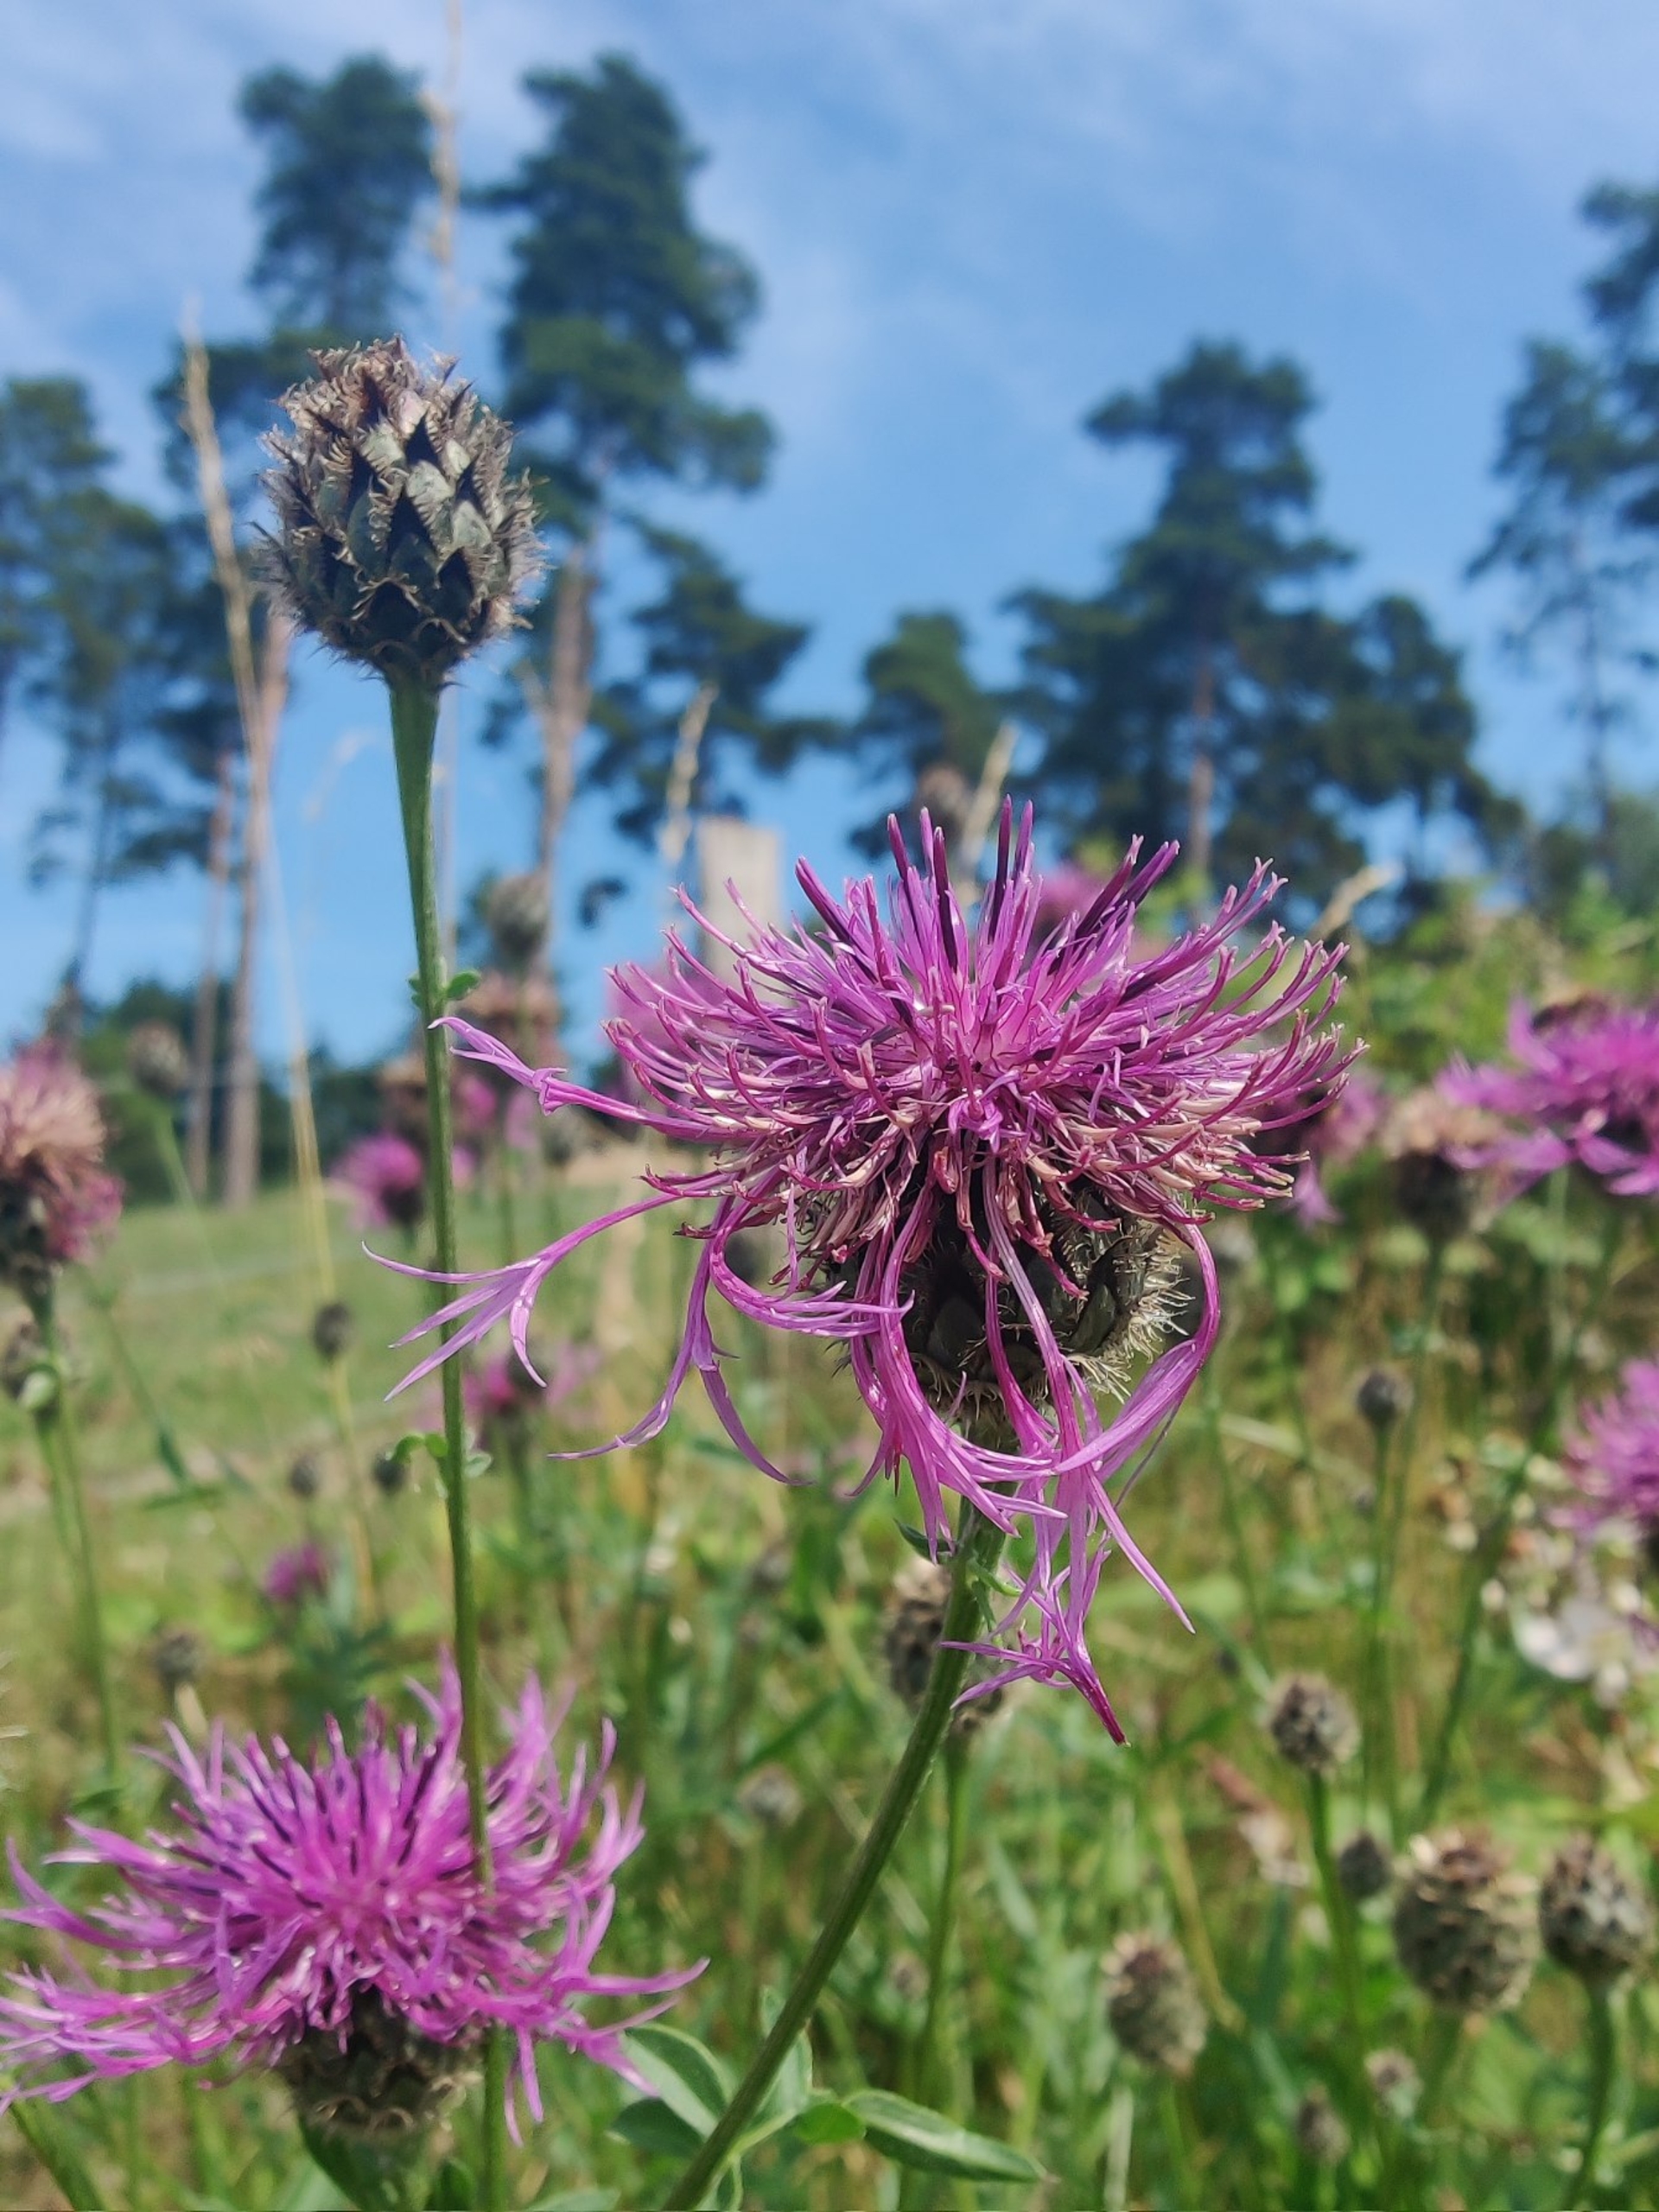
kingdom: Plantae
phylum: Tracheophyta
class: Magnoliopsida
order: Asterales
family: Asteraceae
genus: Centaurea
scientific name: Centaurea scabiosa
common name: Stor knopurt
